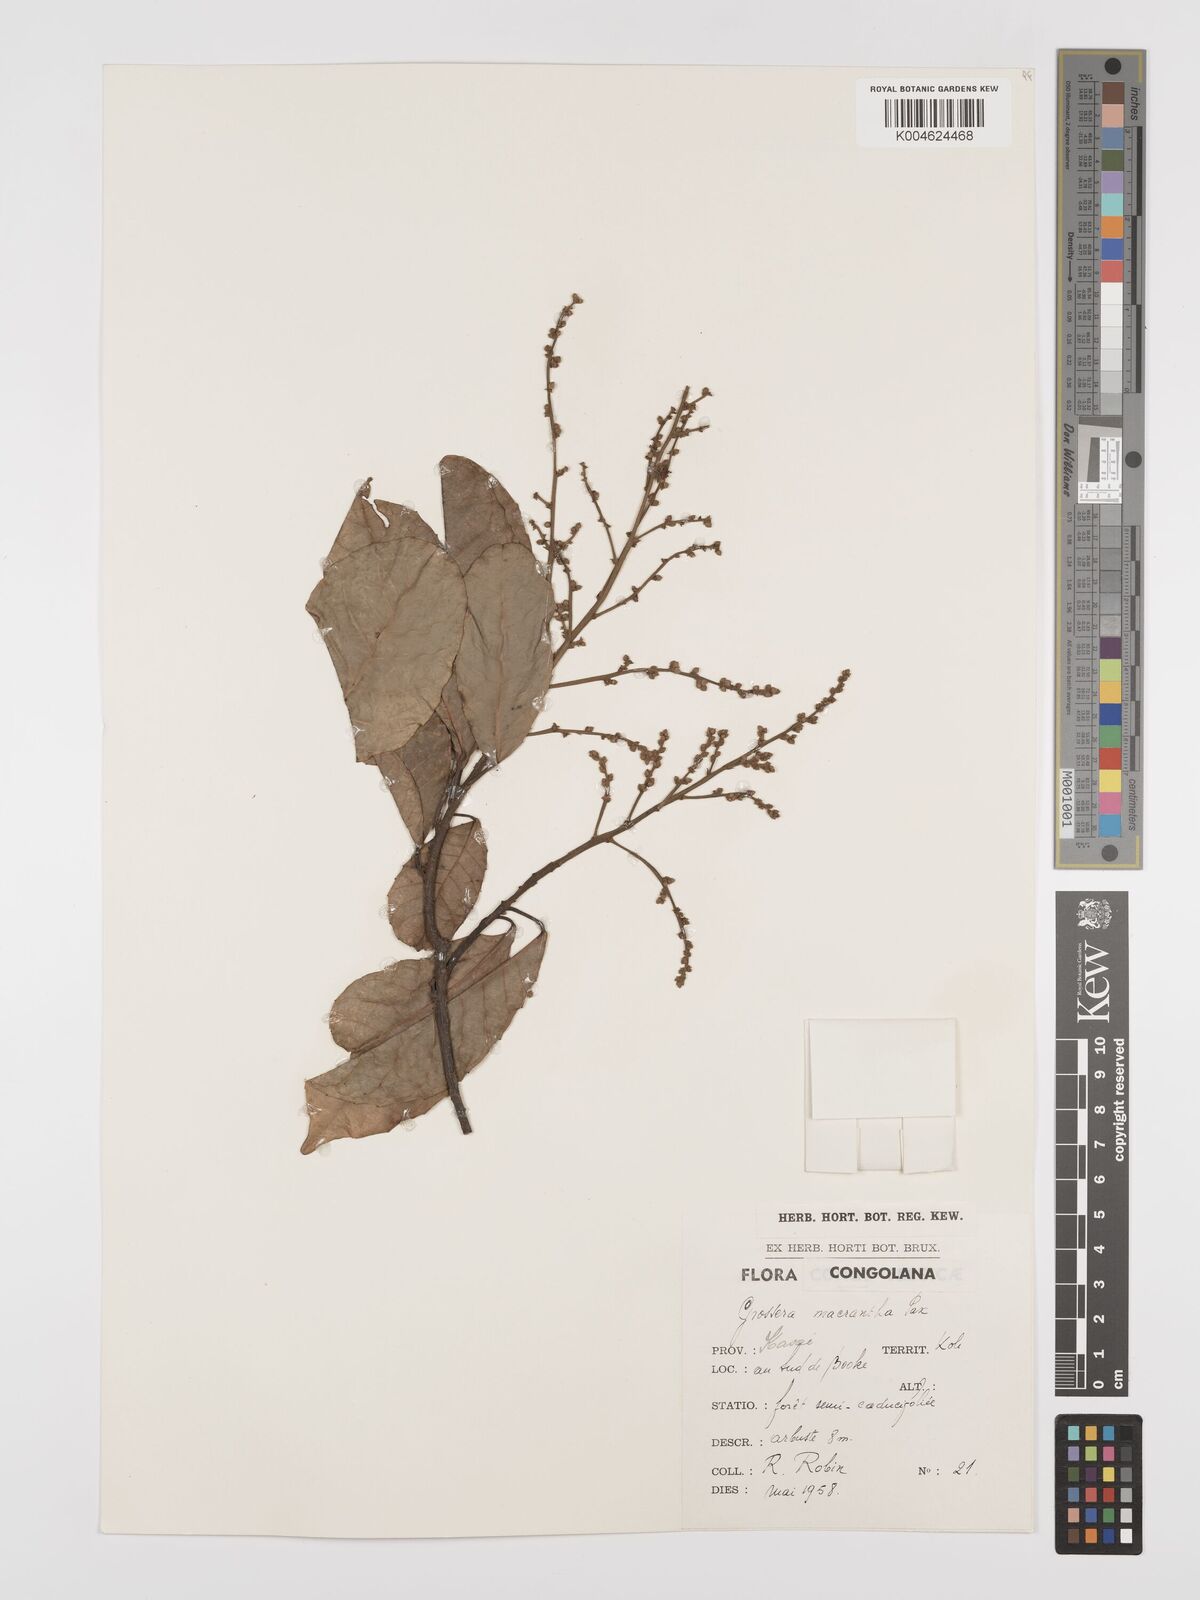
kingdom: Plantae
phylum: Tracheophyta
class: Magnoliopsida
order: Malpighiales
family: Euphorbiaceae
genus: Grossera
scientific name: Grossera macrantha
